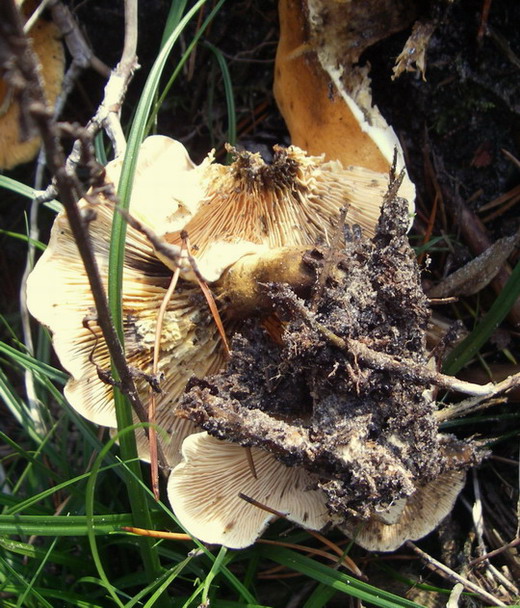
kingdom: Fungi
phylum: Basidiomycota
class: Agaricomycetes
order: Boletales
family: Hygrophoropsidaceae
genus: Hygrophoropsis
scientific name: Hygrophoropsis aurantiaca
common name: almindelig orangekantarel
